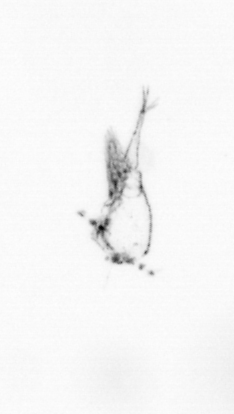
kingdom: Animalia
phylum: Arthropoda
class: Copepoda
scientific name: Copepoda
